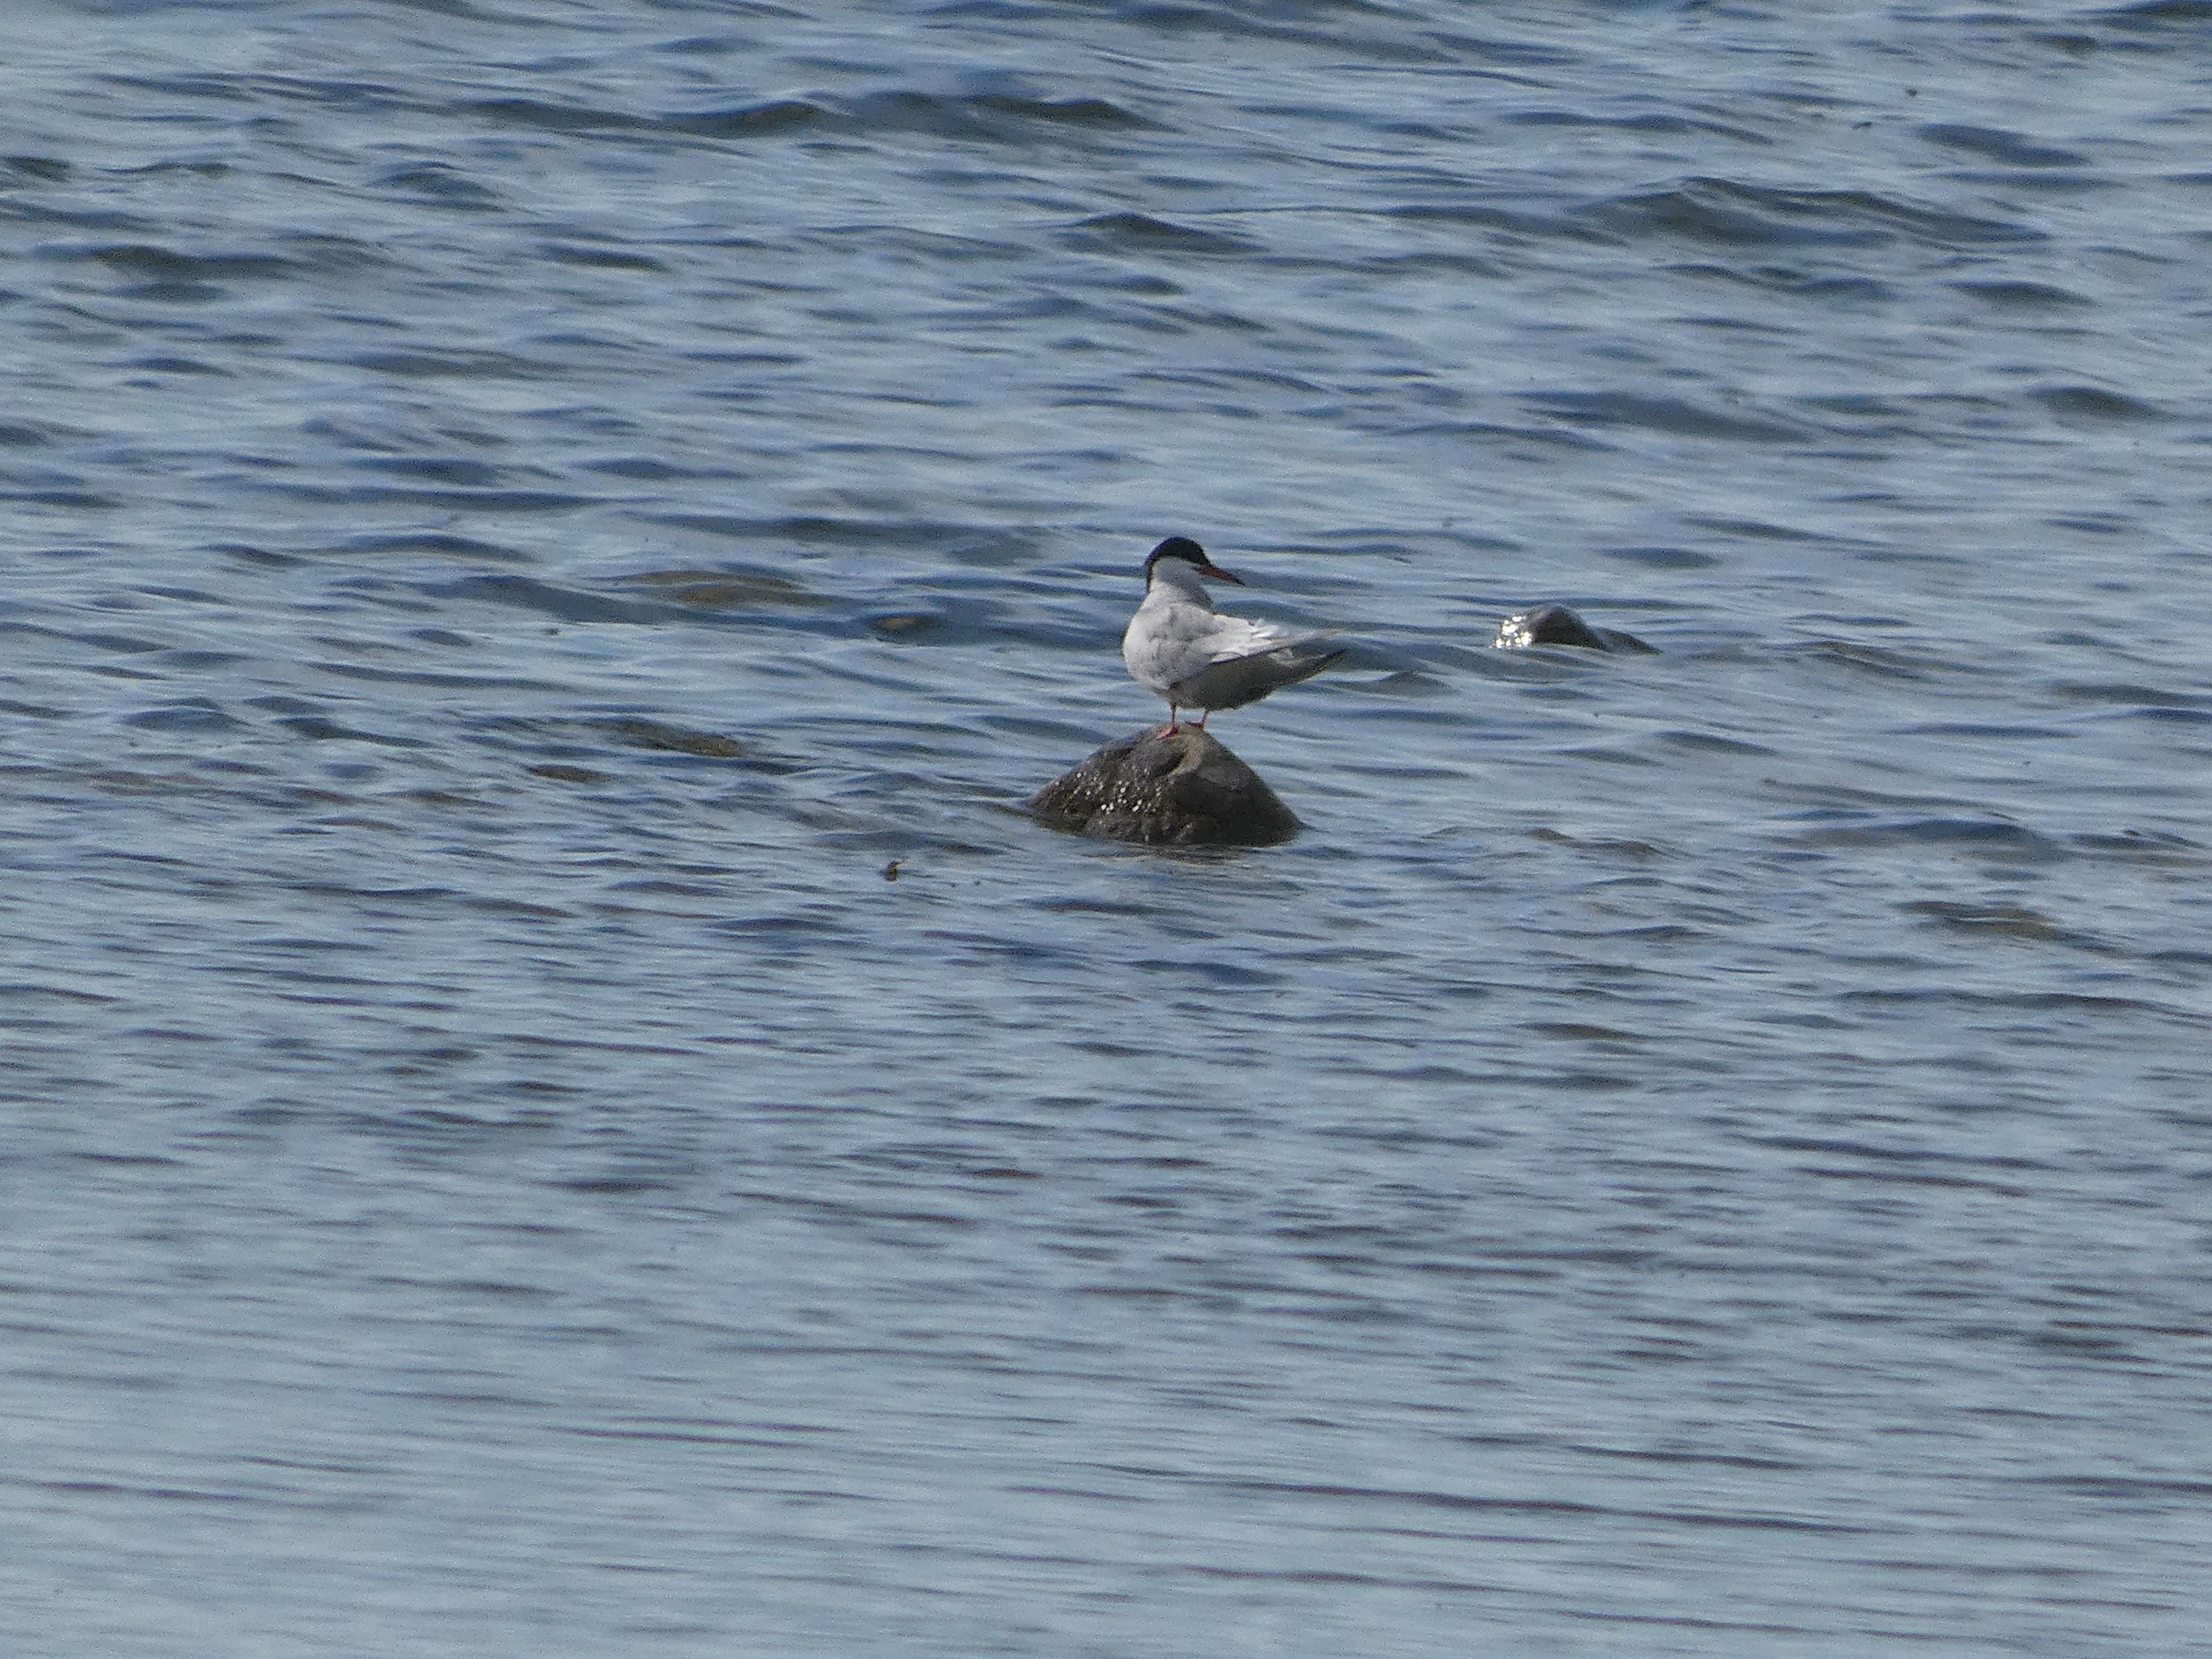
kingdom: Animalia
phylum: Chordata
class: Aves
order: Charadriiformes
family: Laridae
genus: Sterna
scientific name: Sterna hirundo
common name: Fjordterne
